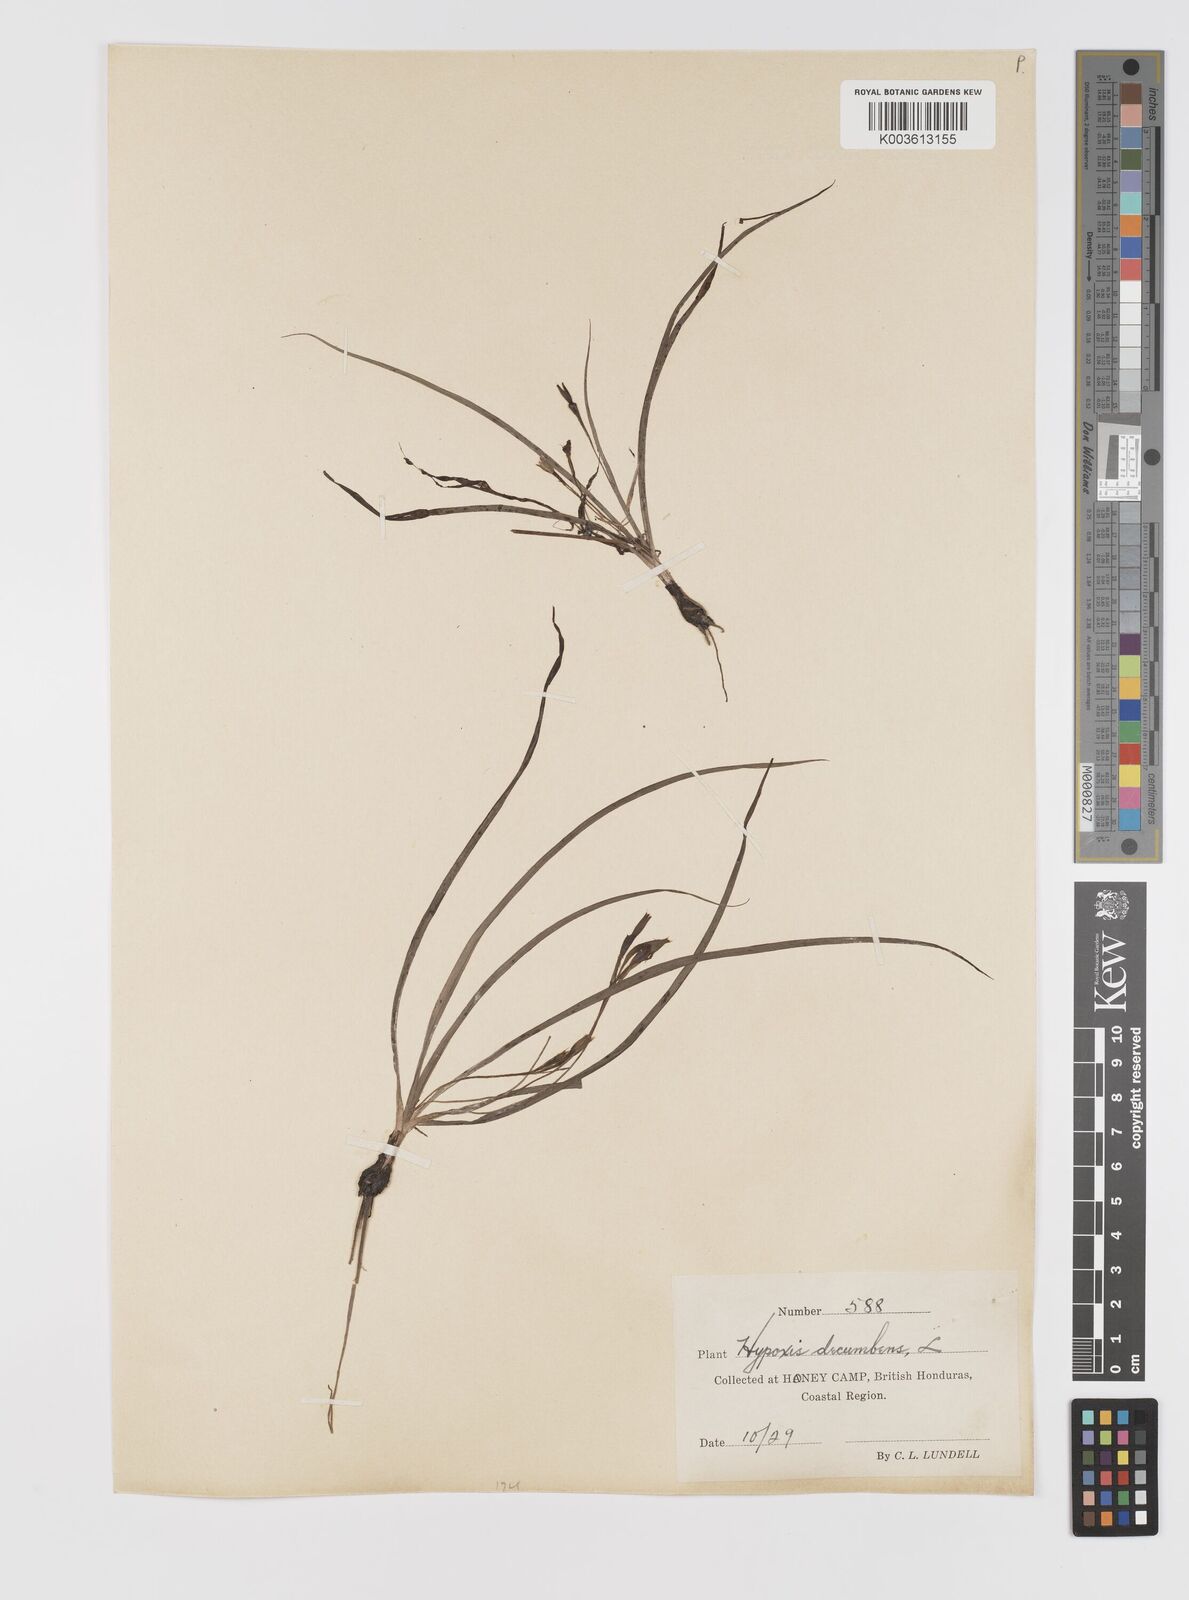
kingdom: Plantae
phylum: Tracheophyta
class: Liliopsida
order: Asparagales
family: Hypoxidaceae
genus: Hypoxis
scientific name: Hypoxis decumbens
